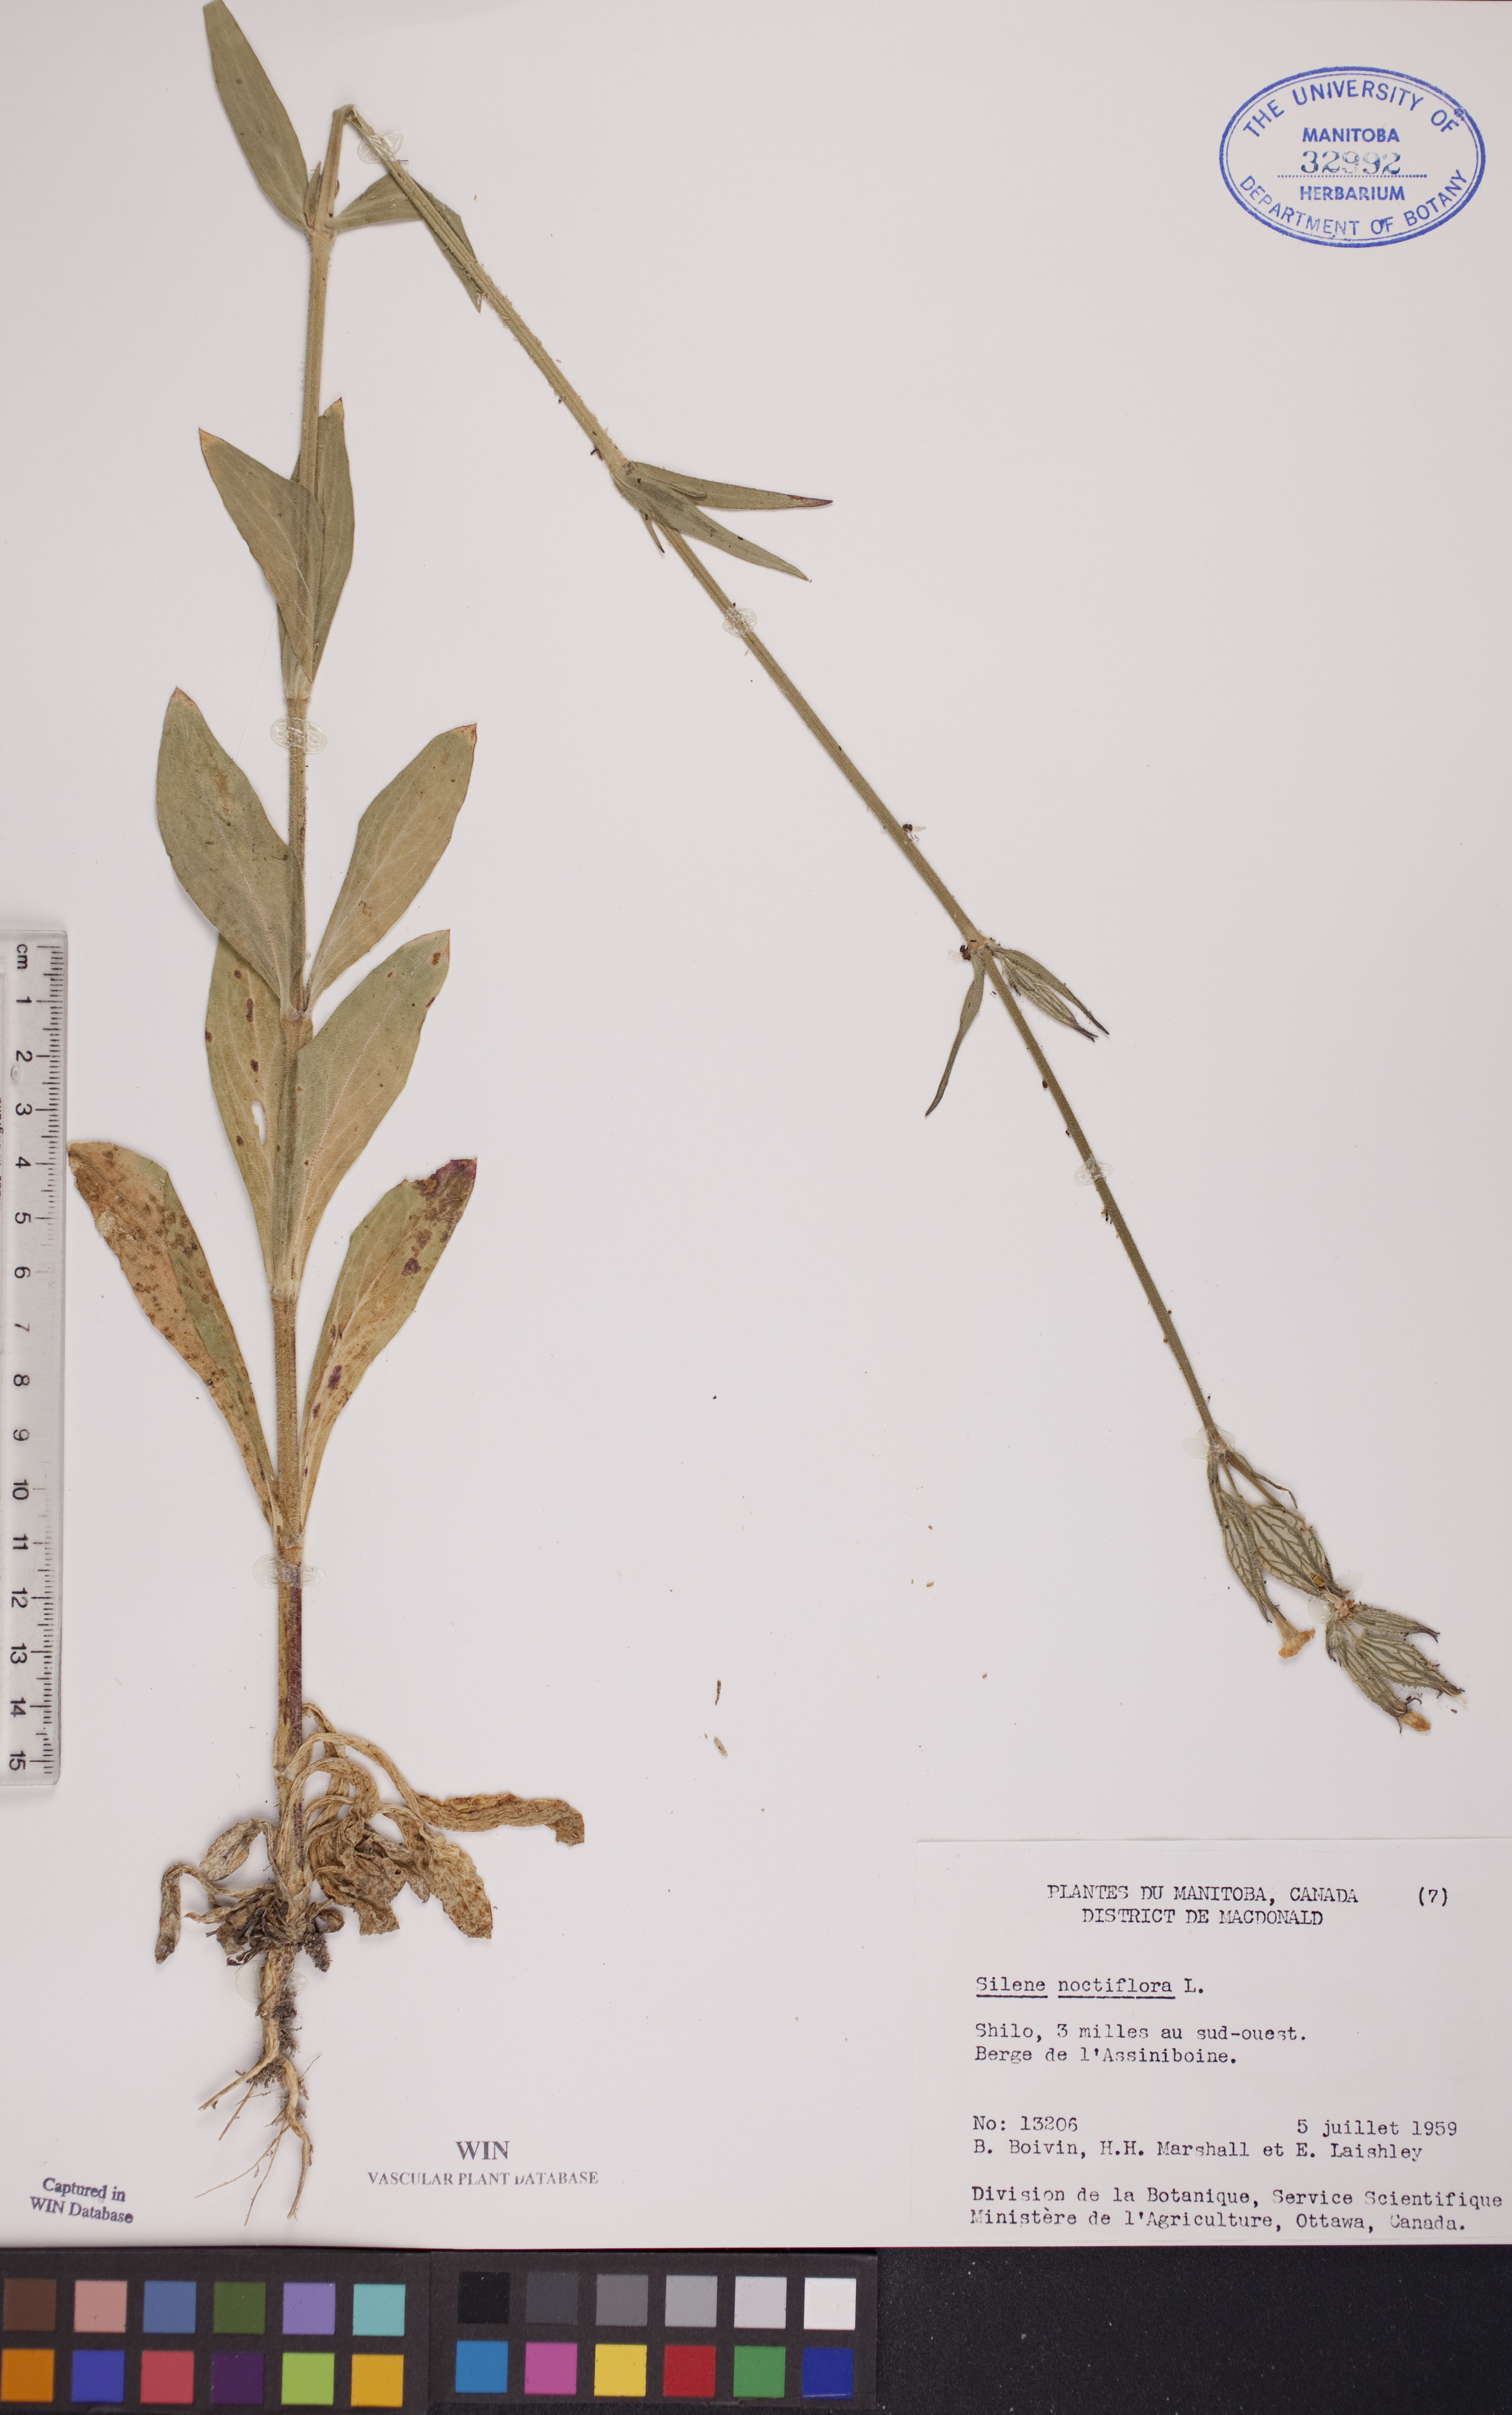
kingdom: Plantae
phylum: Tracheophyta
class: Magnoliopsida
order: Caryophyllales
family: Caryophyllaceae
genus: Silene
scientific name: Silene noctiflora
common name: Night-flowering catchfly
